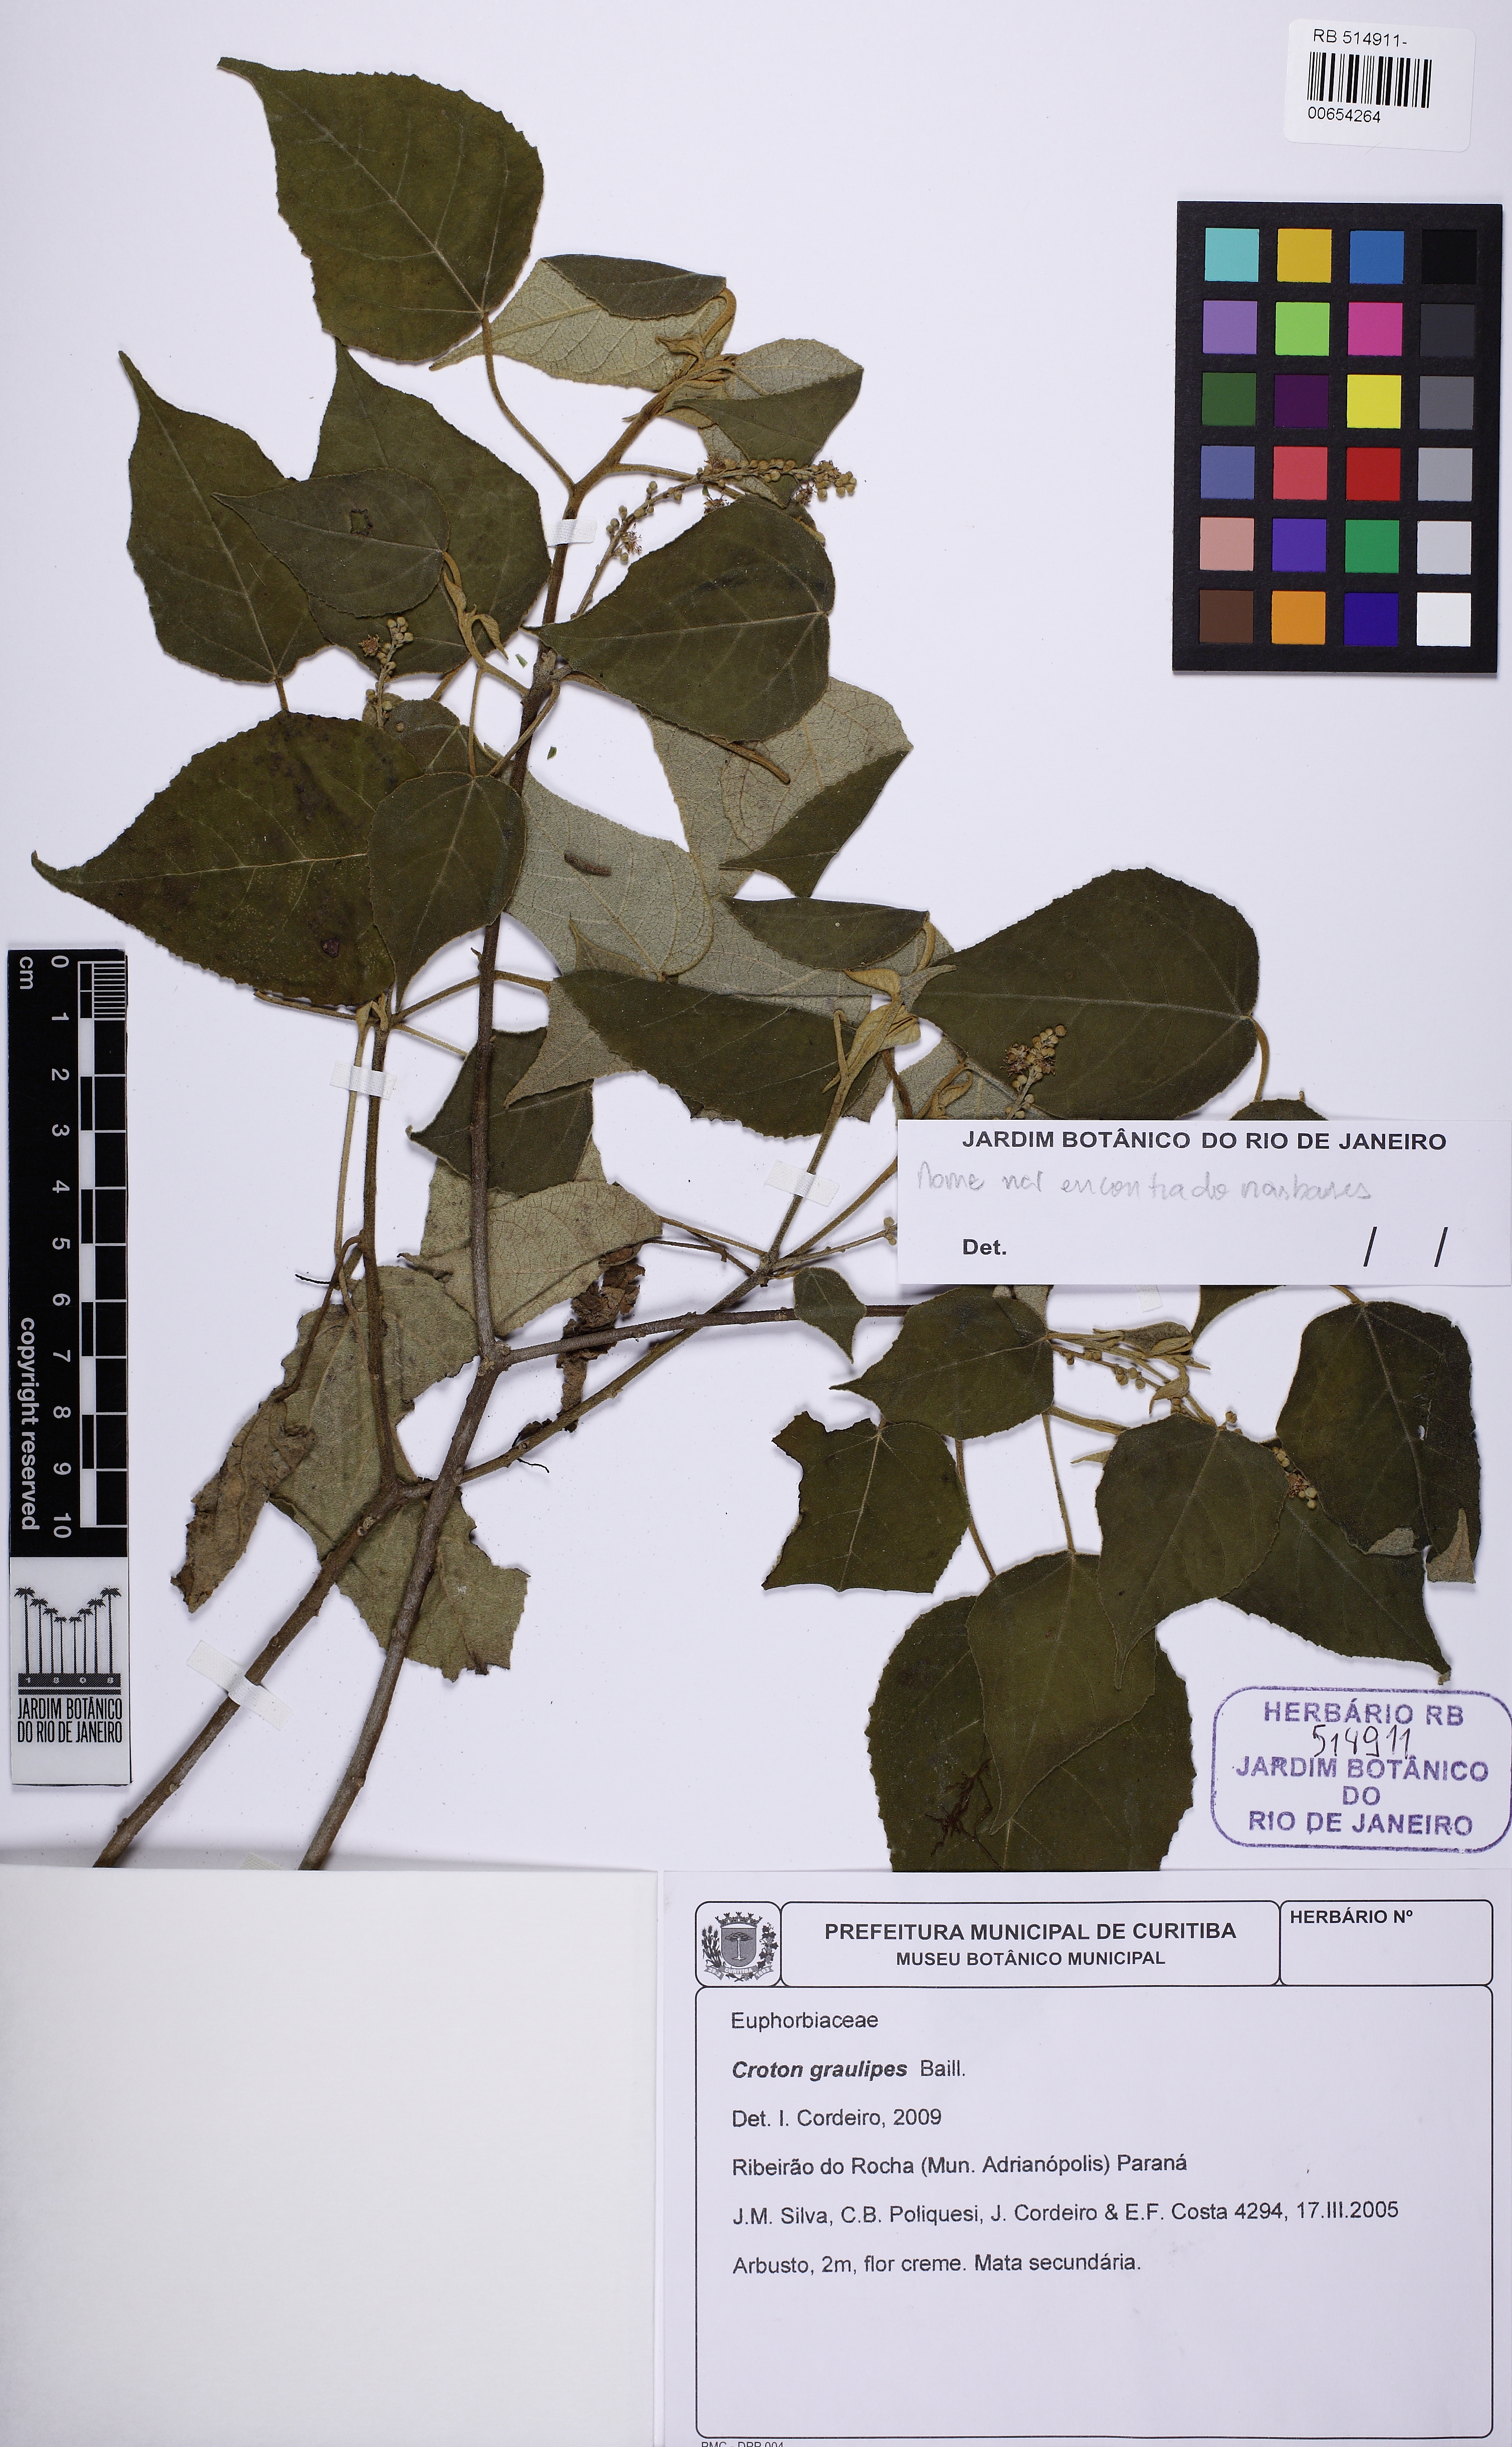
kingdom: Plantae
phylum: Tracheophyta
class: Magnoliopsida
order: Malpighiales
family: Euphorbiaceae
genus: Croton
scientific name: Croton gracilipes
